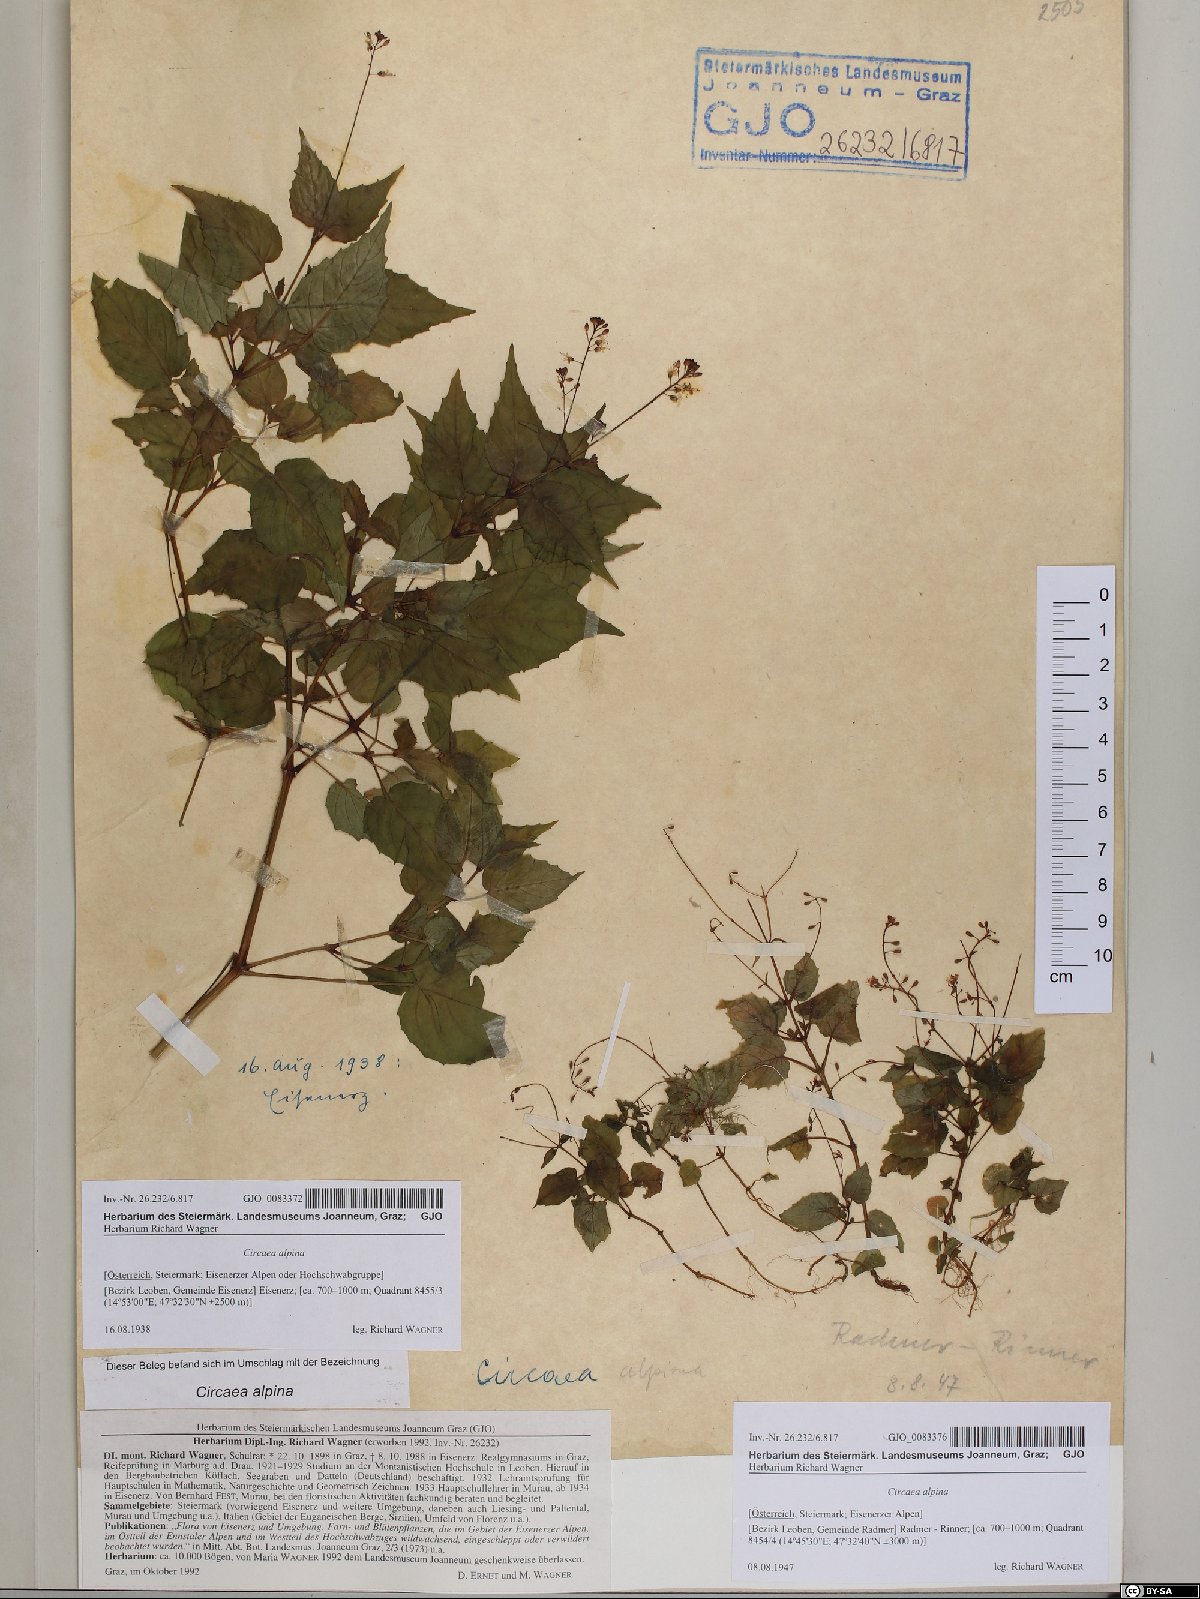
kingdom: Plantae
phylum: Tracheophyta
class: Magnoliopsida
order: Myrtales
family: Onagraceae
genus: Circaea
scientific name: Circaea alpina
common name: Alpine enchanter's-nightshade
